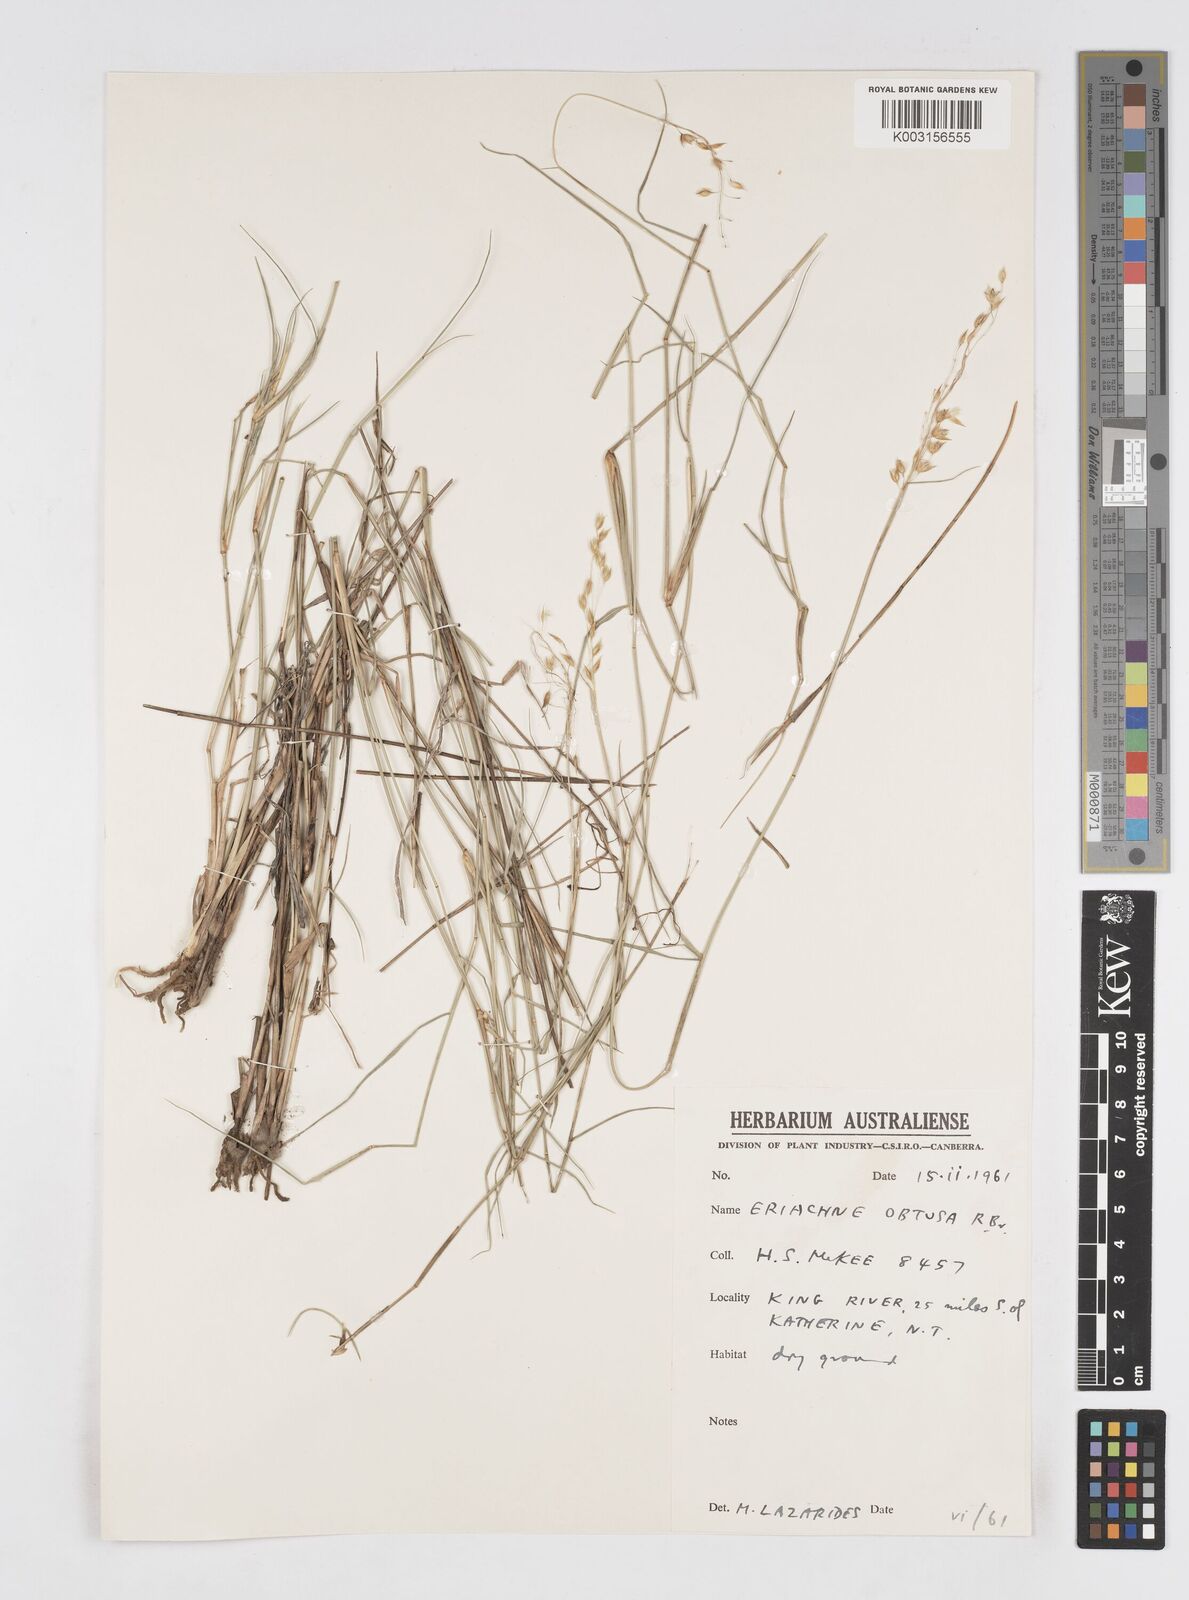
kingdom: Plantae
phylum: Tracheophyta
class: Liliopsida
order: Poales
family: Poaceae
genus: Eriachne
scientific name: Eriachne obtusa
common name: Northern wanderrie grass
